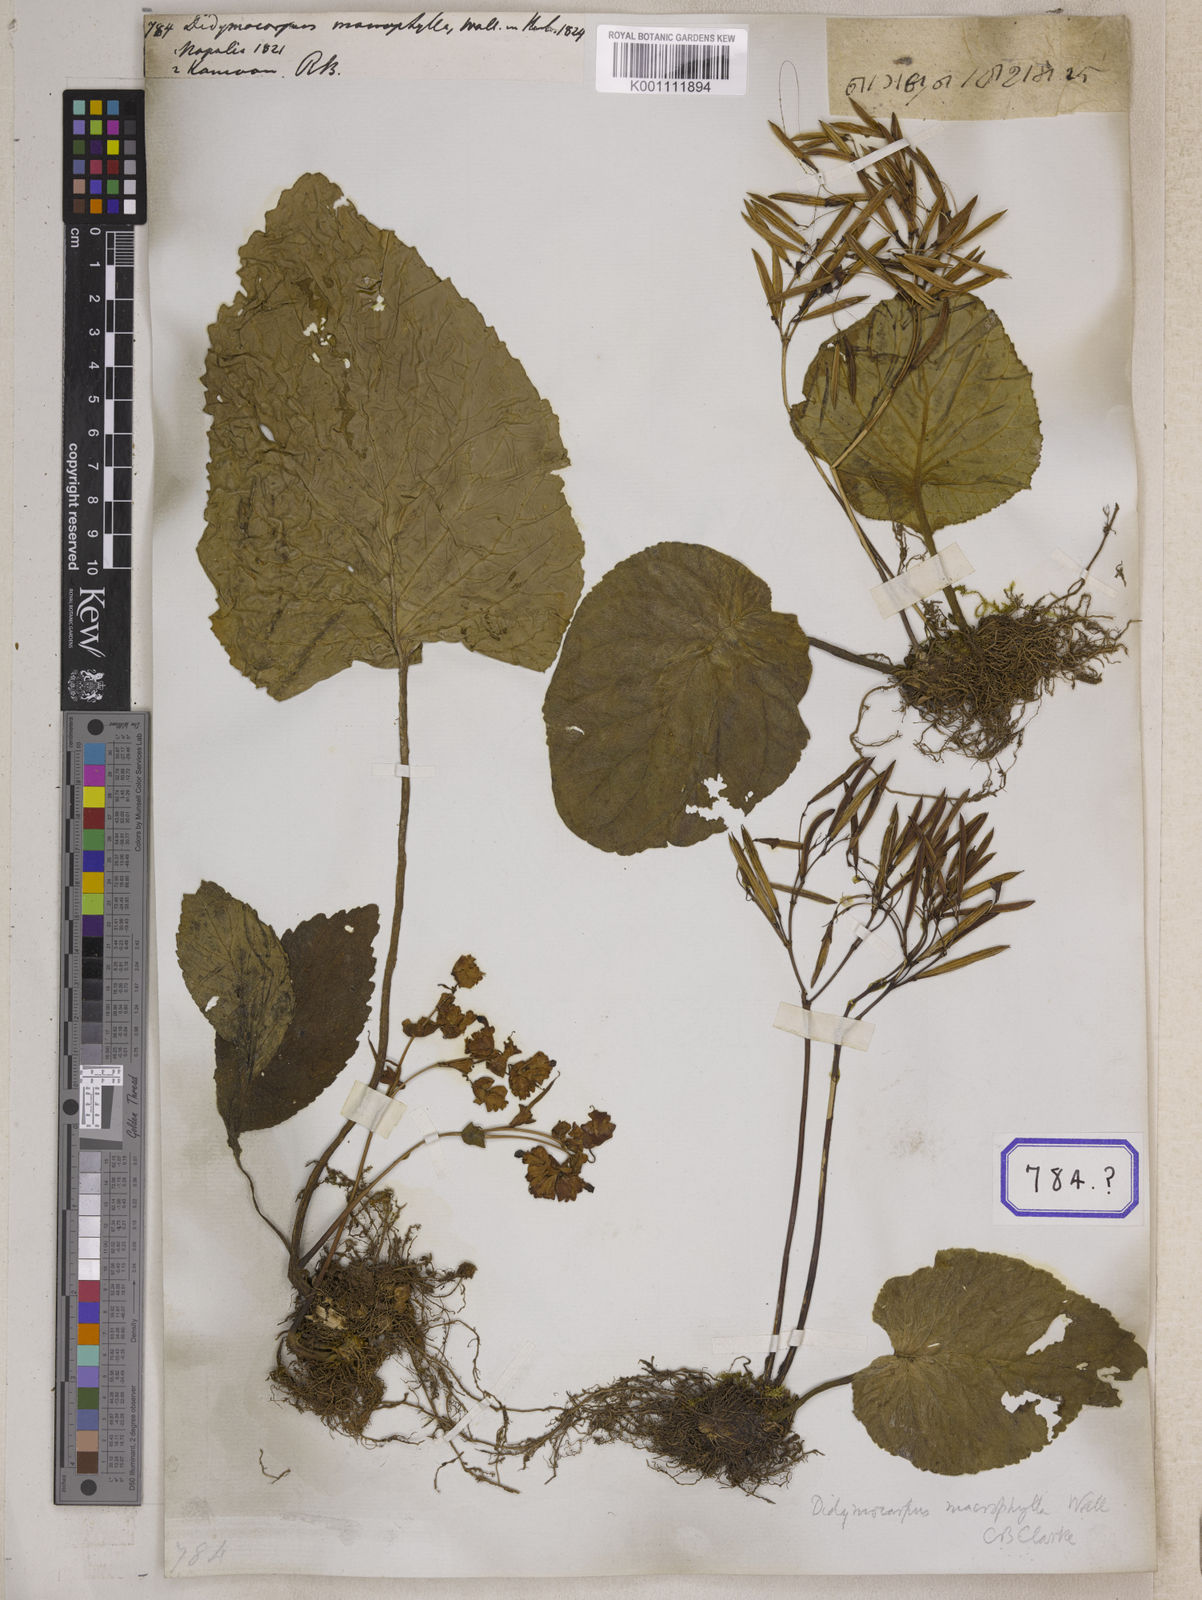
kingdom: Plantae
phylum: Tracheophyta
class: Magnoliopsida
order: Lamiales
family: Gesneriaceae
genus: Didymocarpus
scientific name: Didymocarpus
